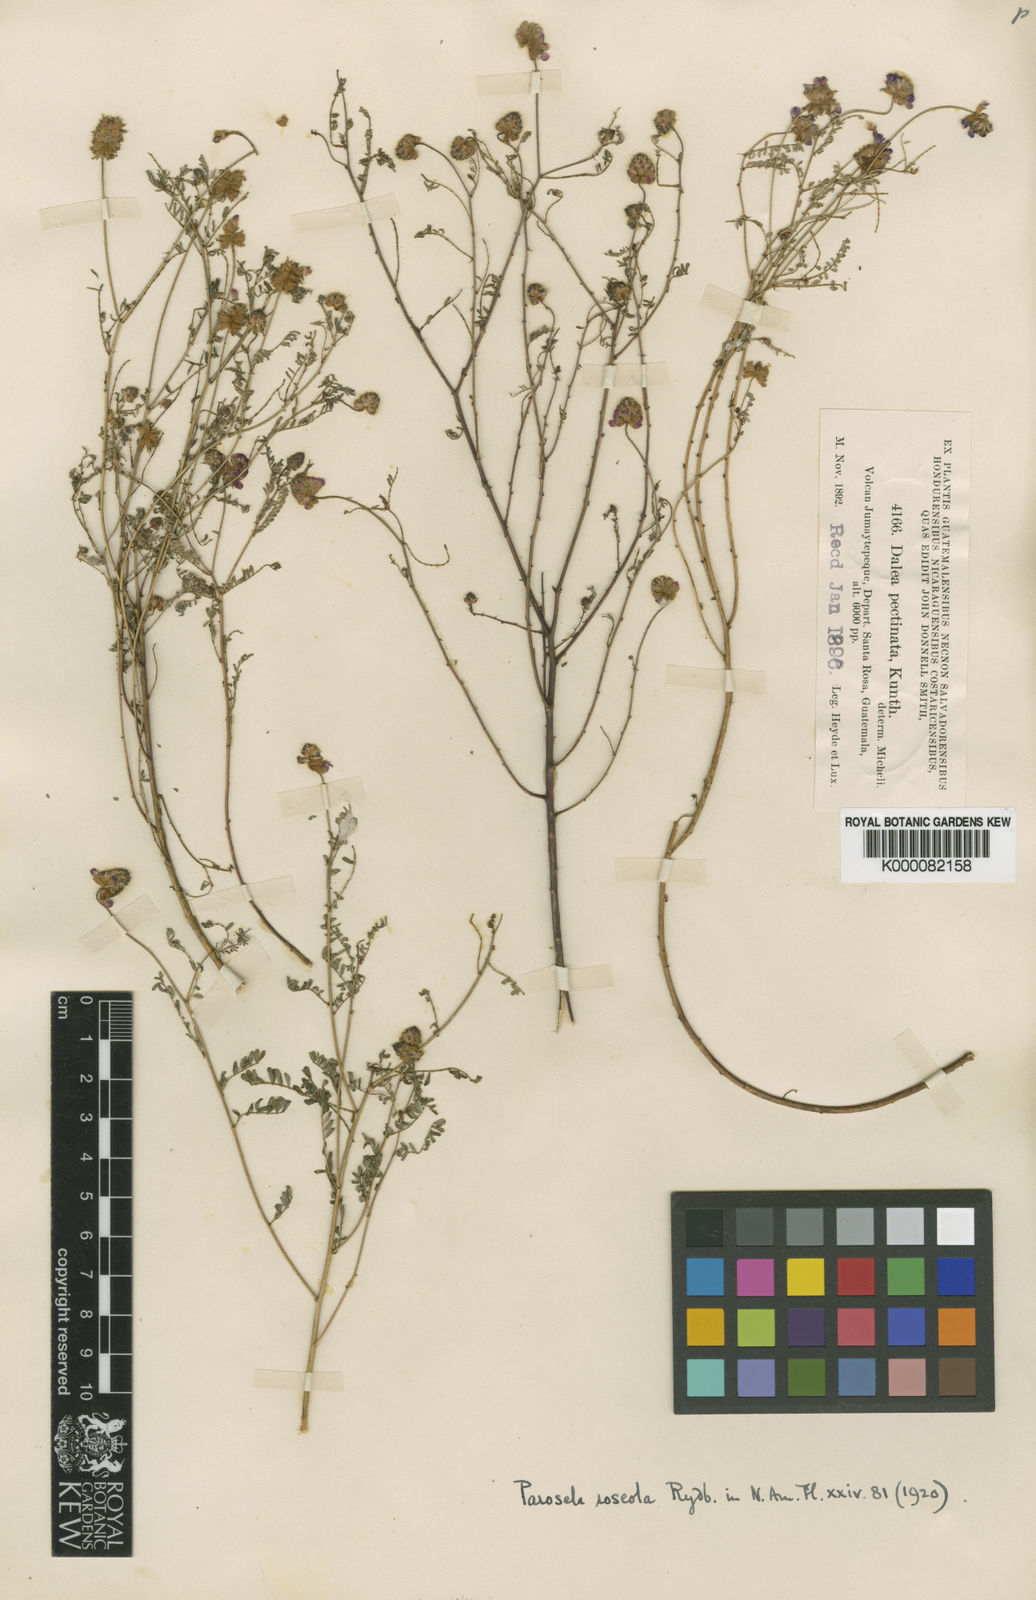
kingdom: Plantae
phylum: Tracheophyta
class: Magnoliopsida
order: Fabales
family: Fabaceae
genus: Dalea
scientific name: Dalea foliolosa
